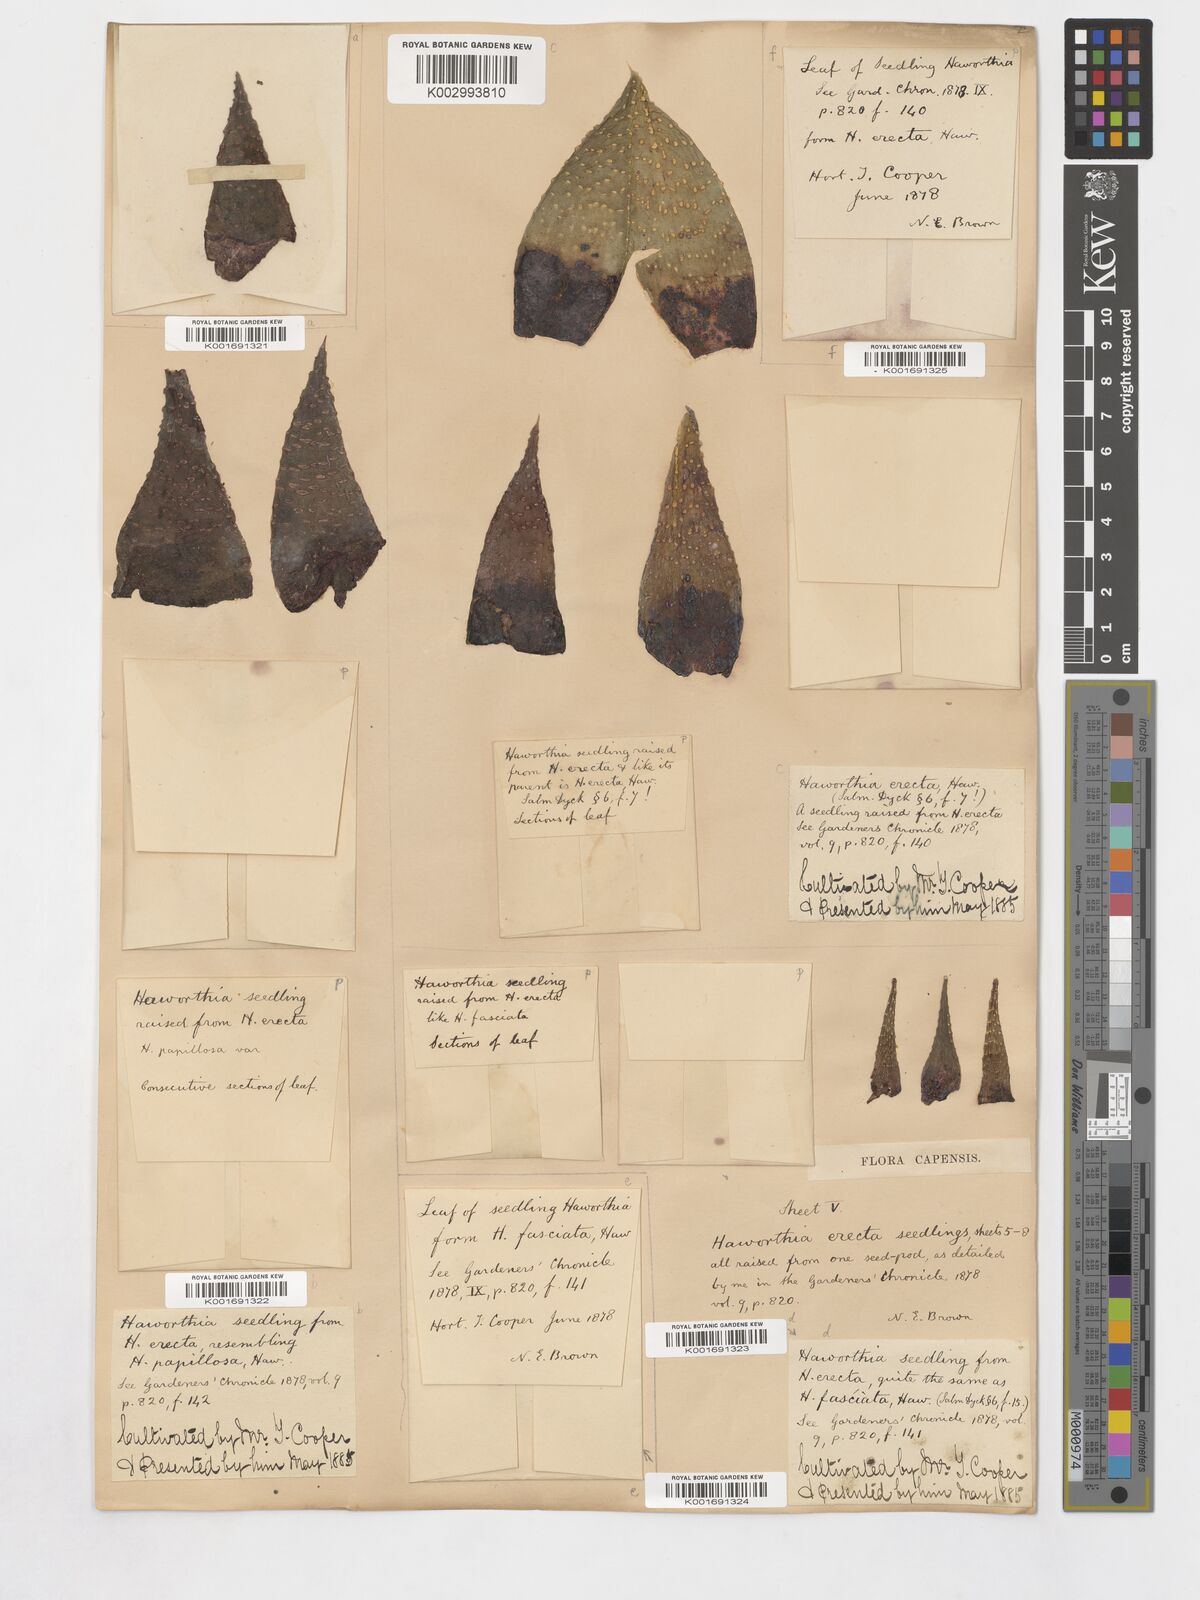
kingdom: Plantae
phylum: Tracheophyta
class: Liliopsida
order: Asparagales
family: Asphodelaceae
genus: Haworthia
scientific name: Haworthia herbacea
